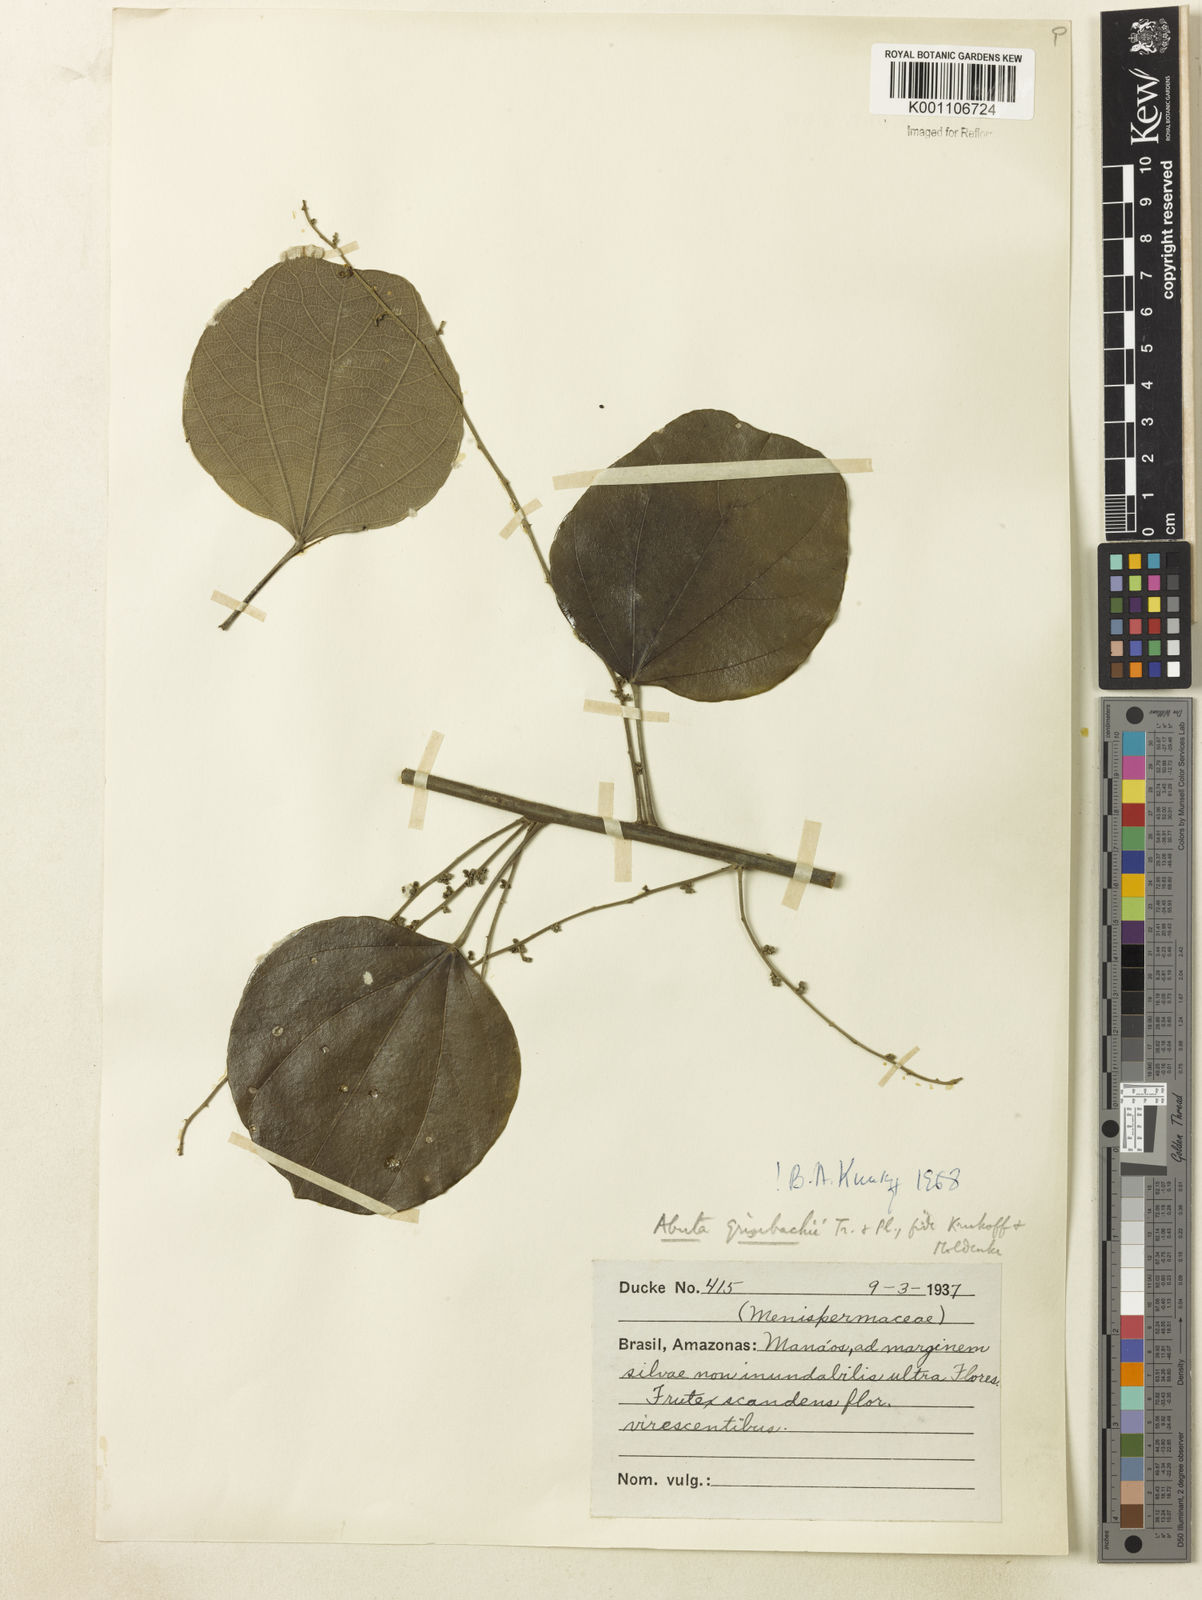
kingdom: Plantae
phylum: Tracheophyta
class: Magnoliopsida
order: Ranunculales
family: Menispermaceae
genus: Abuta
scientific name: Abuta grisebachii
